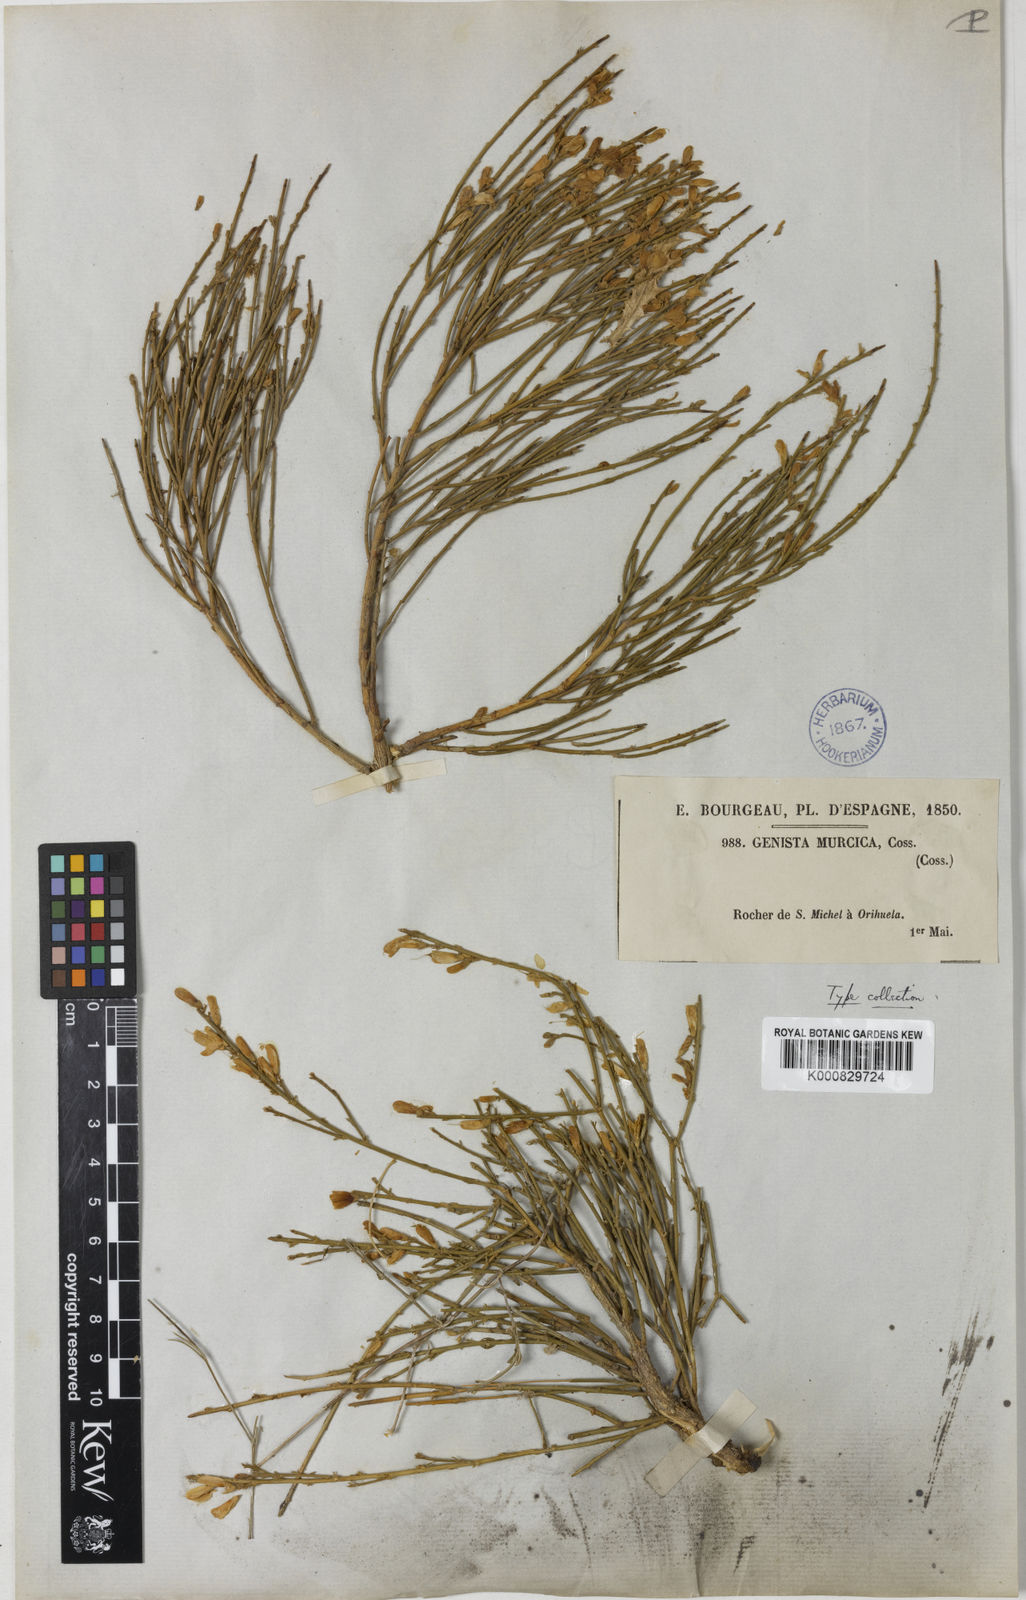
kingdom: Plantae
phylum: Tracheophyta
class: Magnoliopsida
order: Fabales
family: Fabaceae
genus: Genista
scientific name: Genista cinerea
